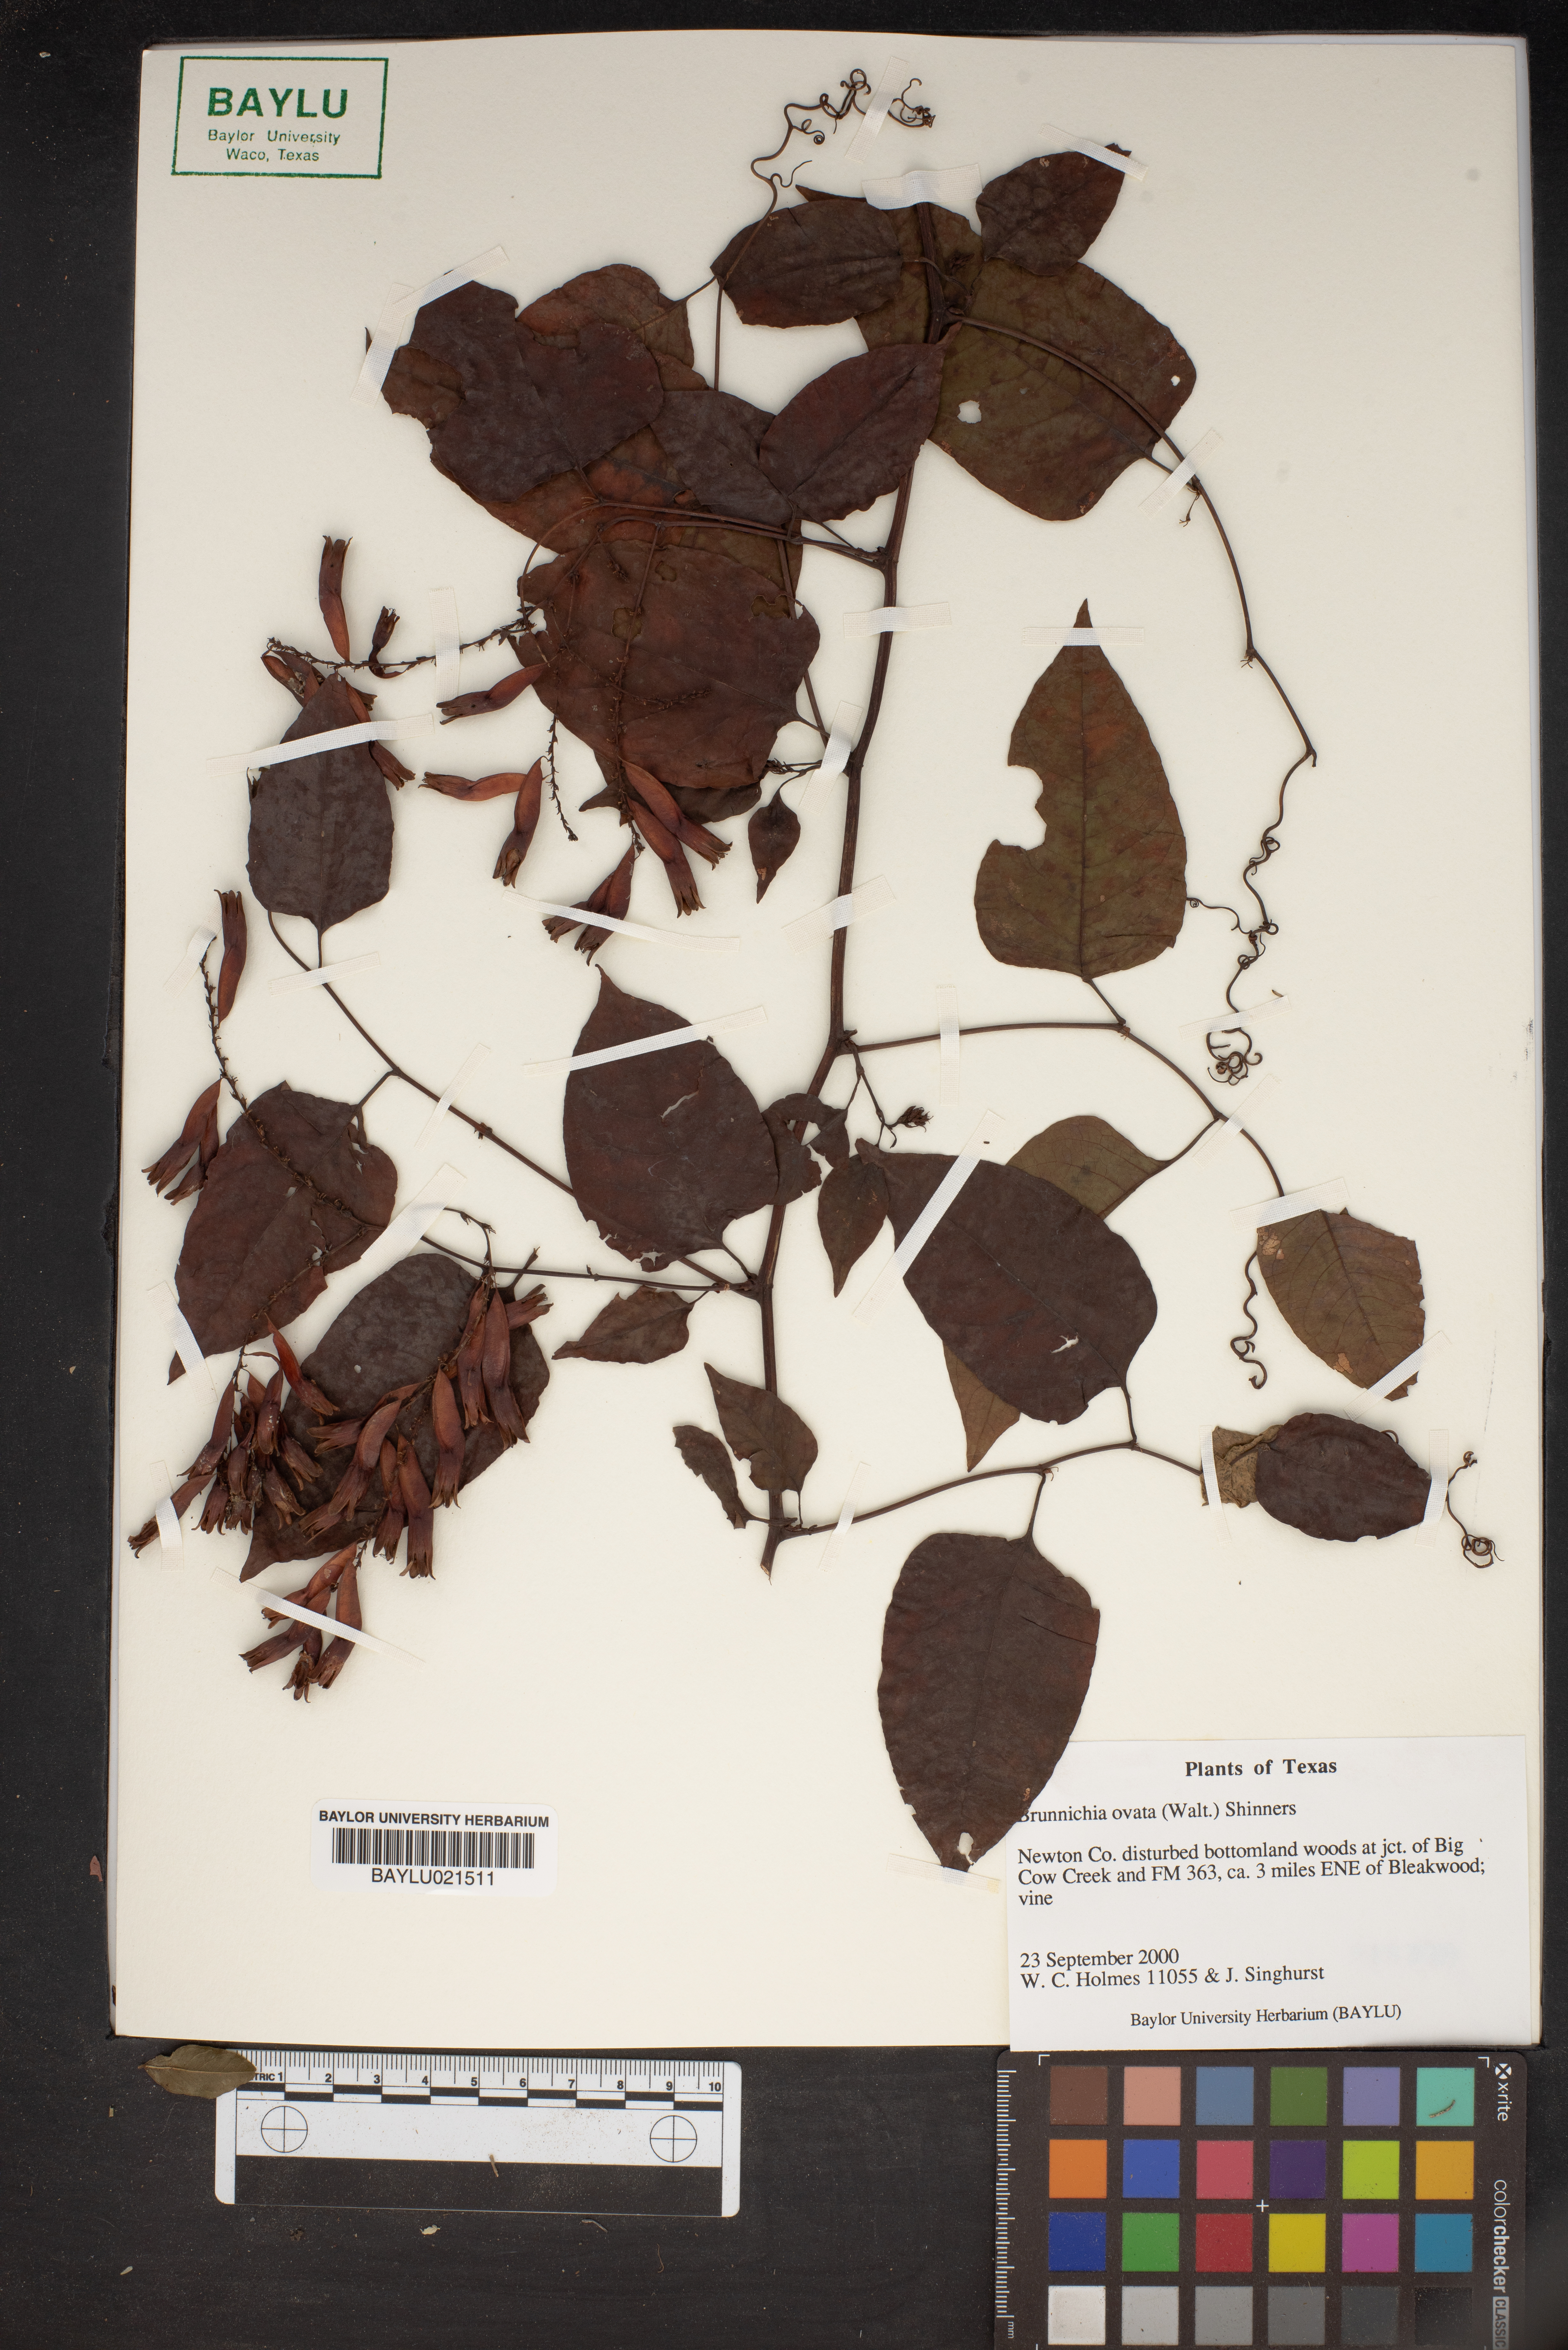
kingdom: Plantae
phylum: Tracheophyta
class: Magnoliopsida
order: Caryophyllales
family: Polygonaceae
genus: Brunnichia
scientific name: Brunnichia ovata
